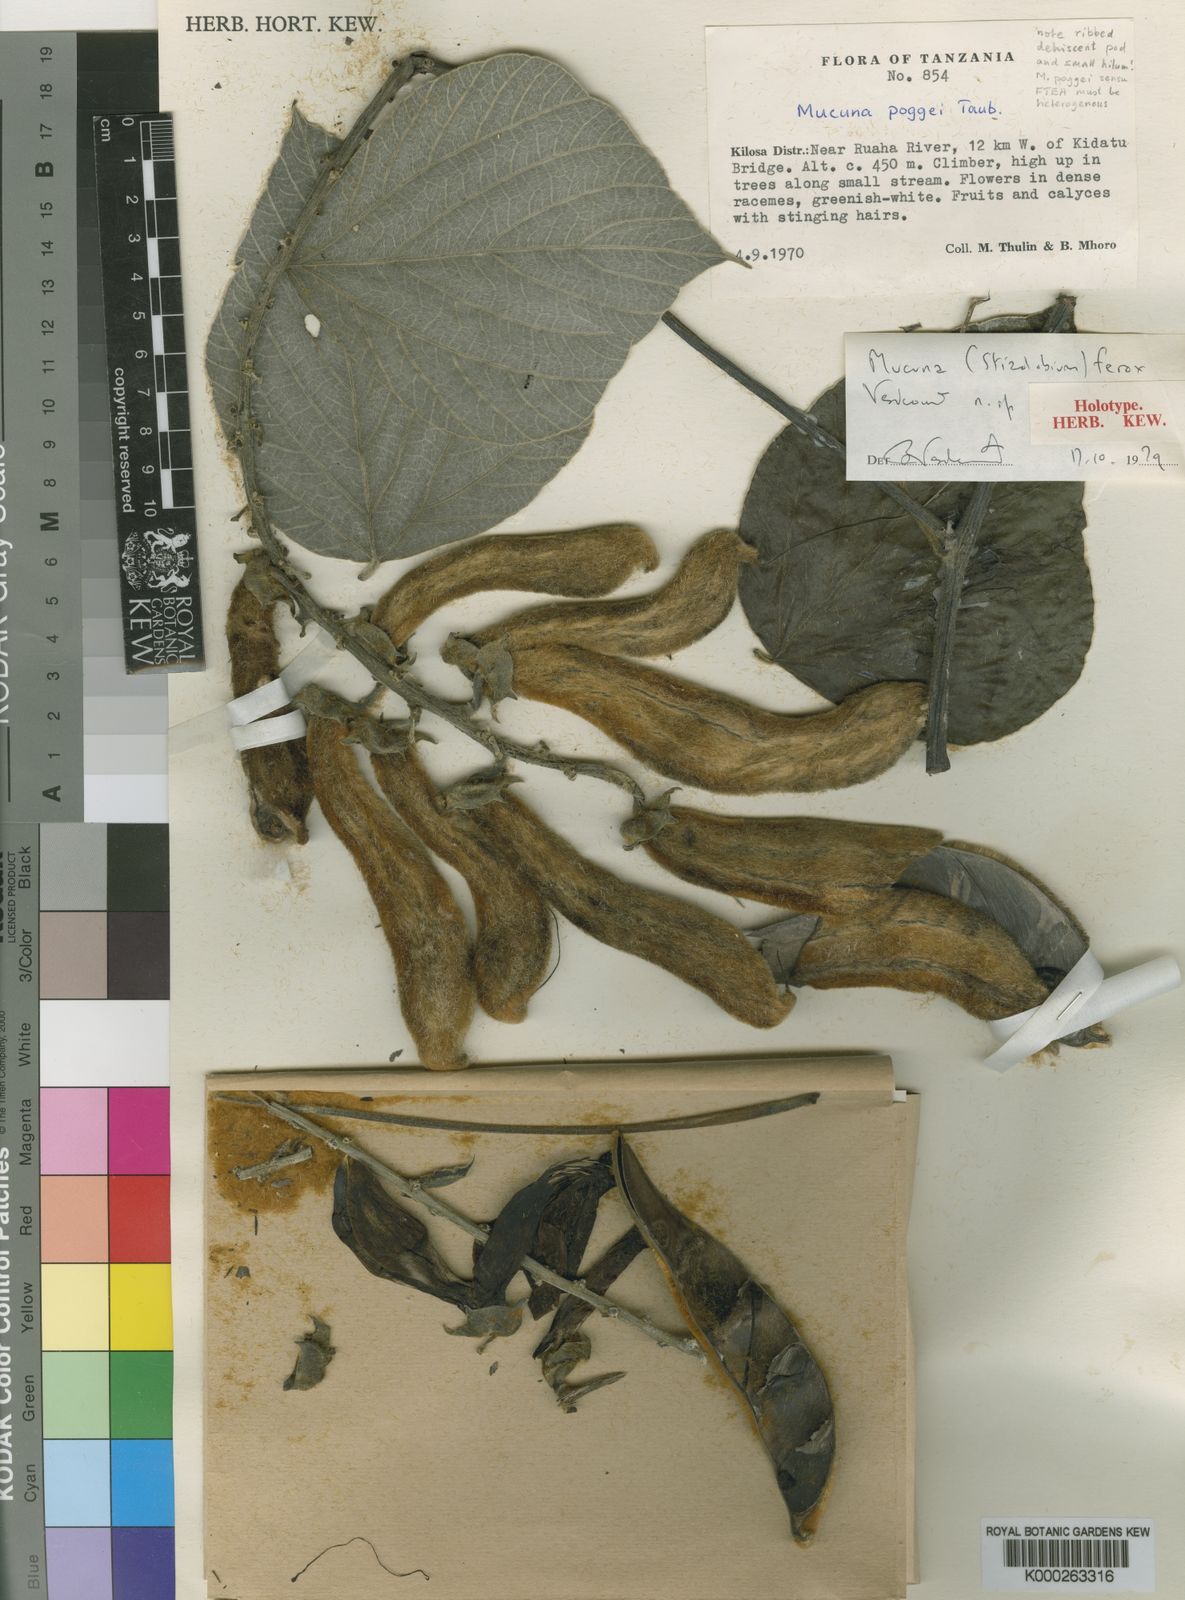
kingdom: Plantae
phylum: Tracheophyta
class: Magnoliopsida
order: Fabales
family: Fabaceae
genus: Mucuna
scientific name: Mucuna poggei
